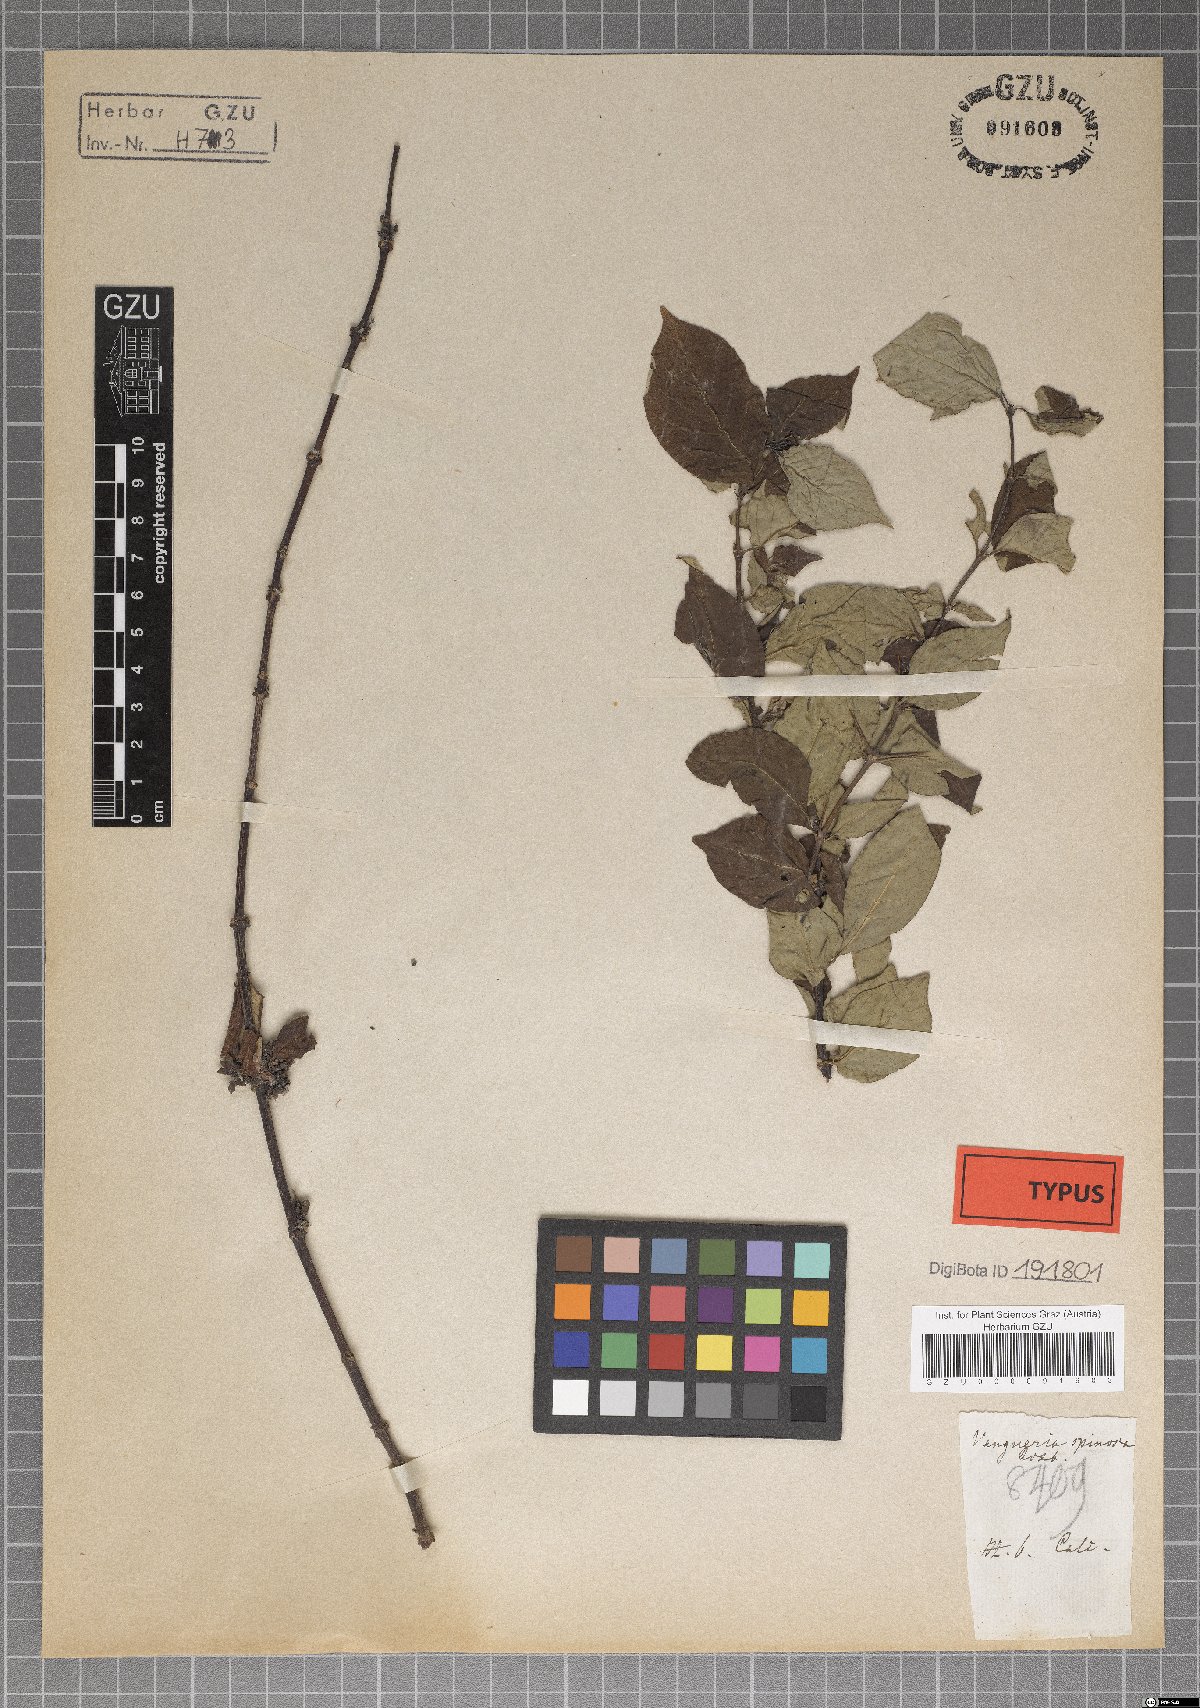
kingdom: Plantae
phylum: Tracheophyta
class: Magnoliopsida
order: Gentianales
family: Rubiaceae
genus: Meyna
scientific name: Meyna spinosa
